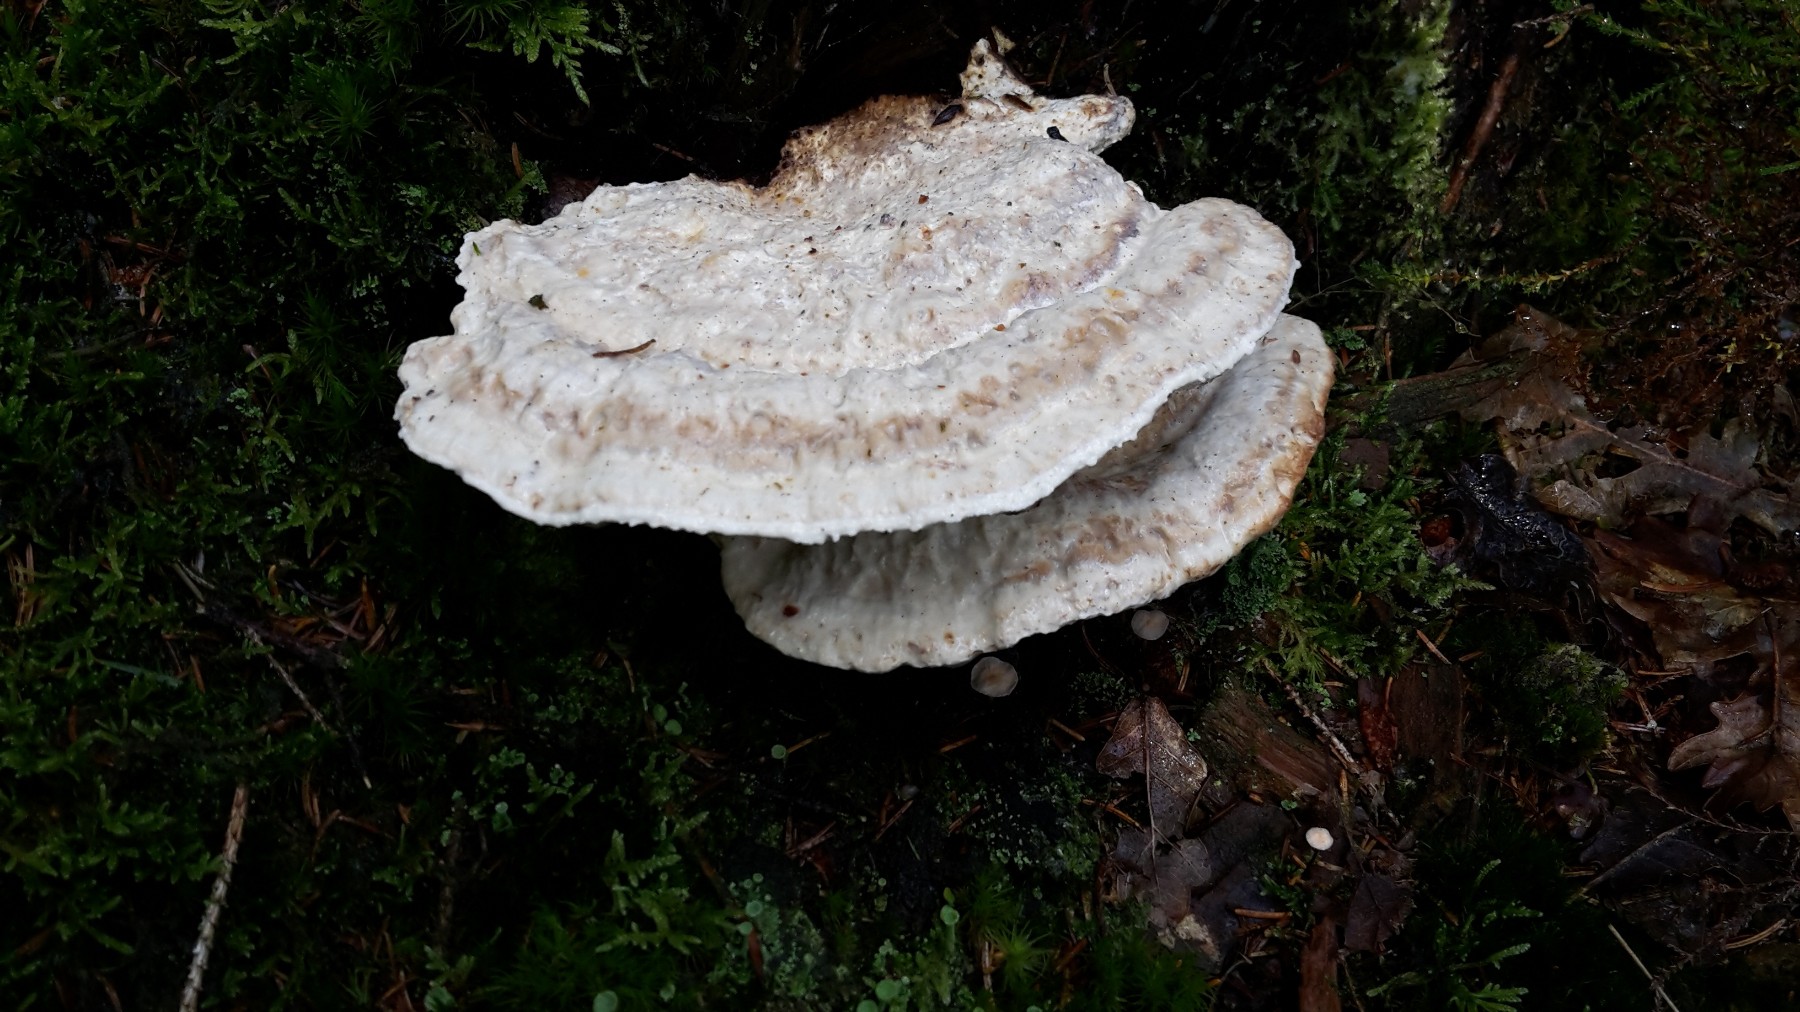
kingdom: Fungi
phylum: Basidiomycota
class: Agaricomycetes
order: Polyporales
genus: Calcipostia
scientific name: Calcipostia guttulata
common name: dråbe-kødporesvamp
